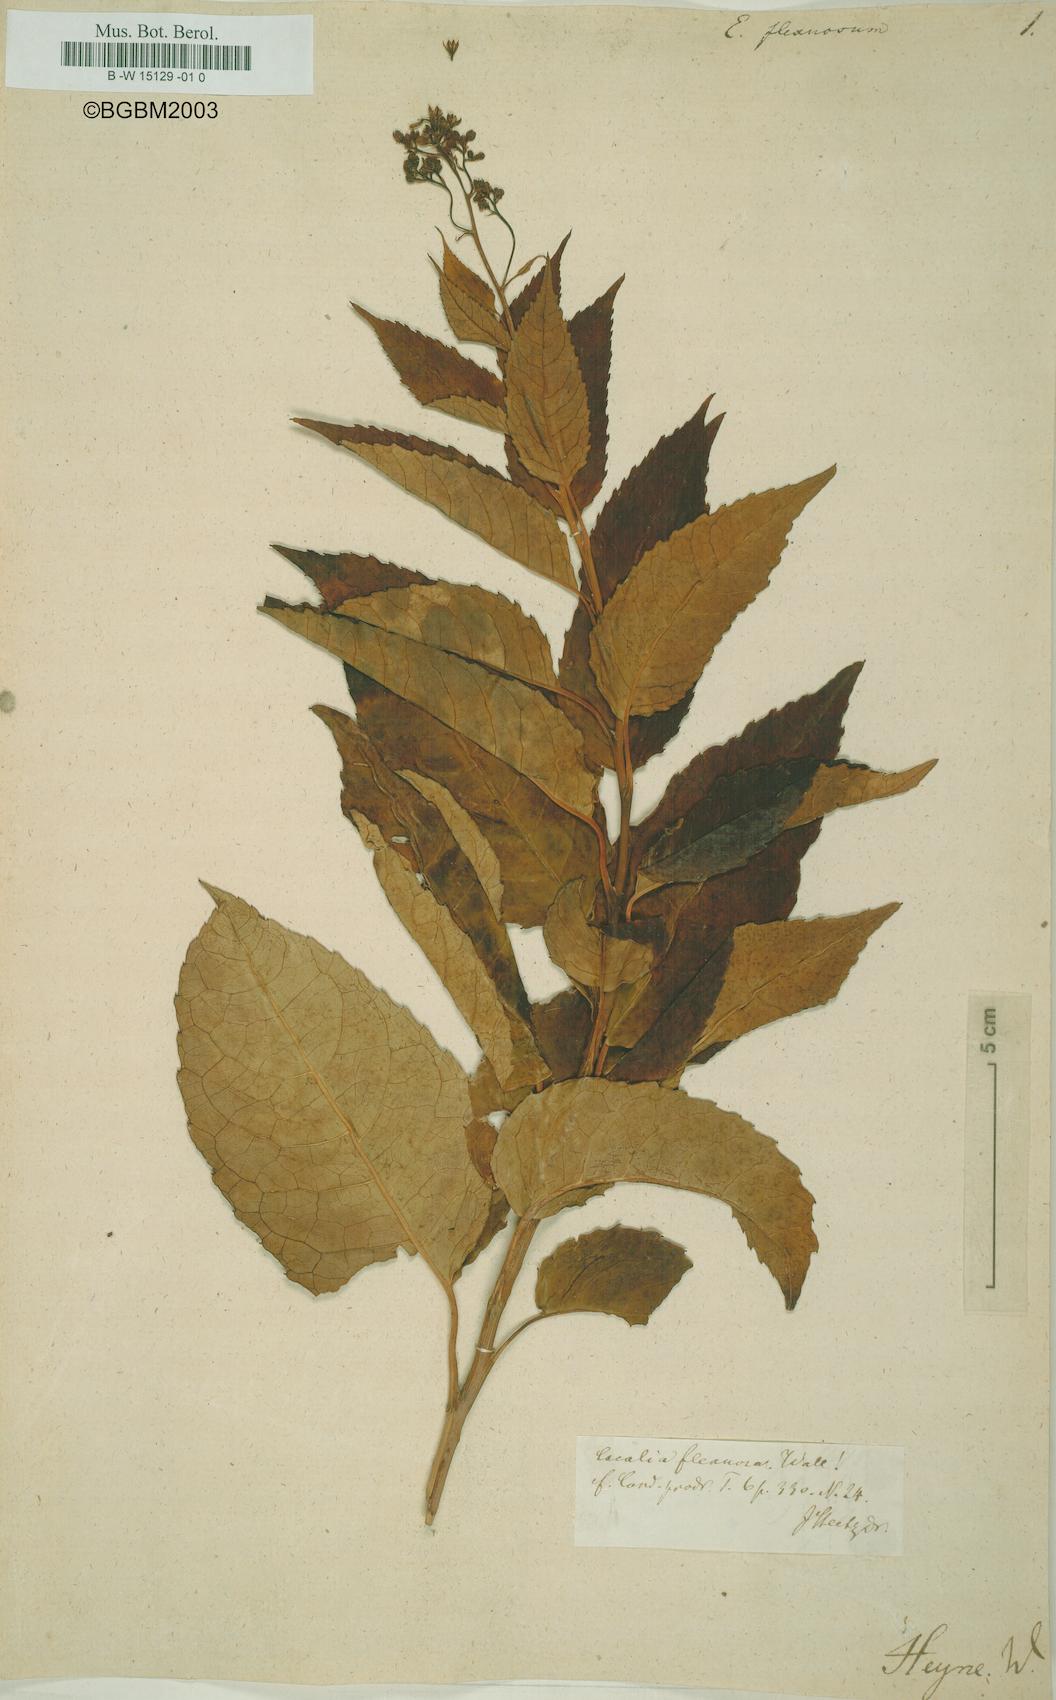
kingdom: Plantae
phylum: Tracheophyta
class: Magnoliopsida
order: Asterales
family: Asteraceae
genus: Eupatorium
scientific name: Eupatorium flexuosum
